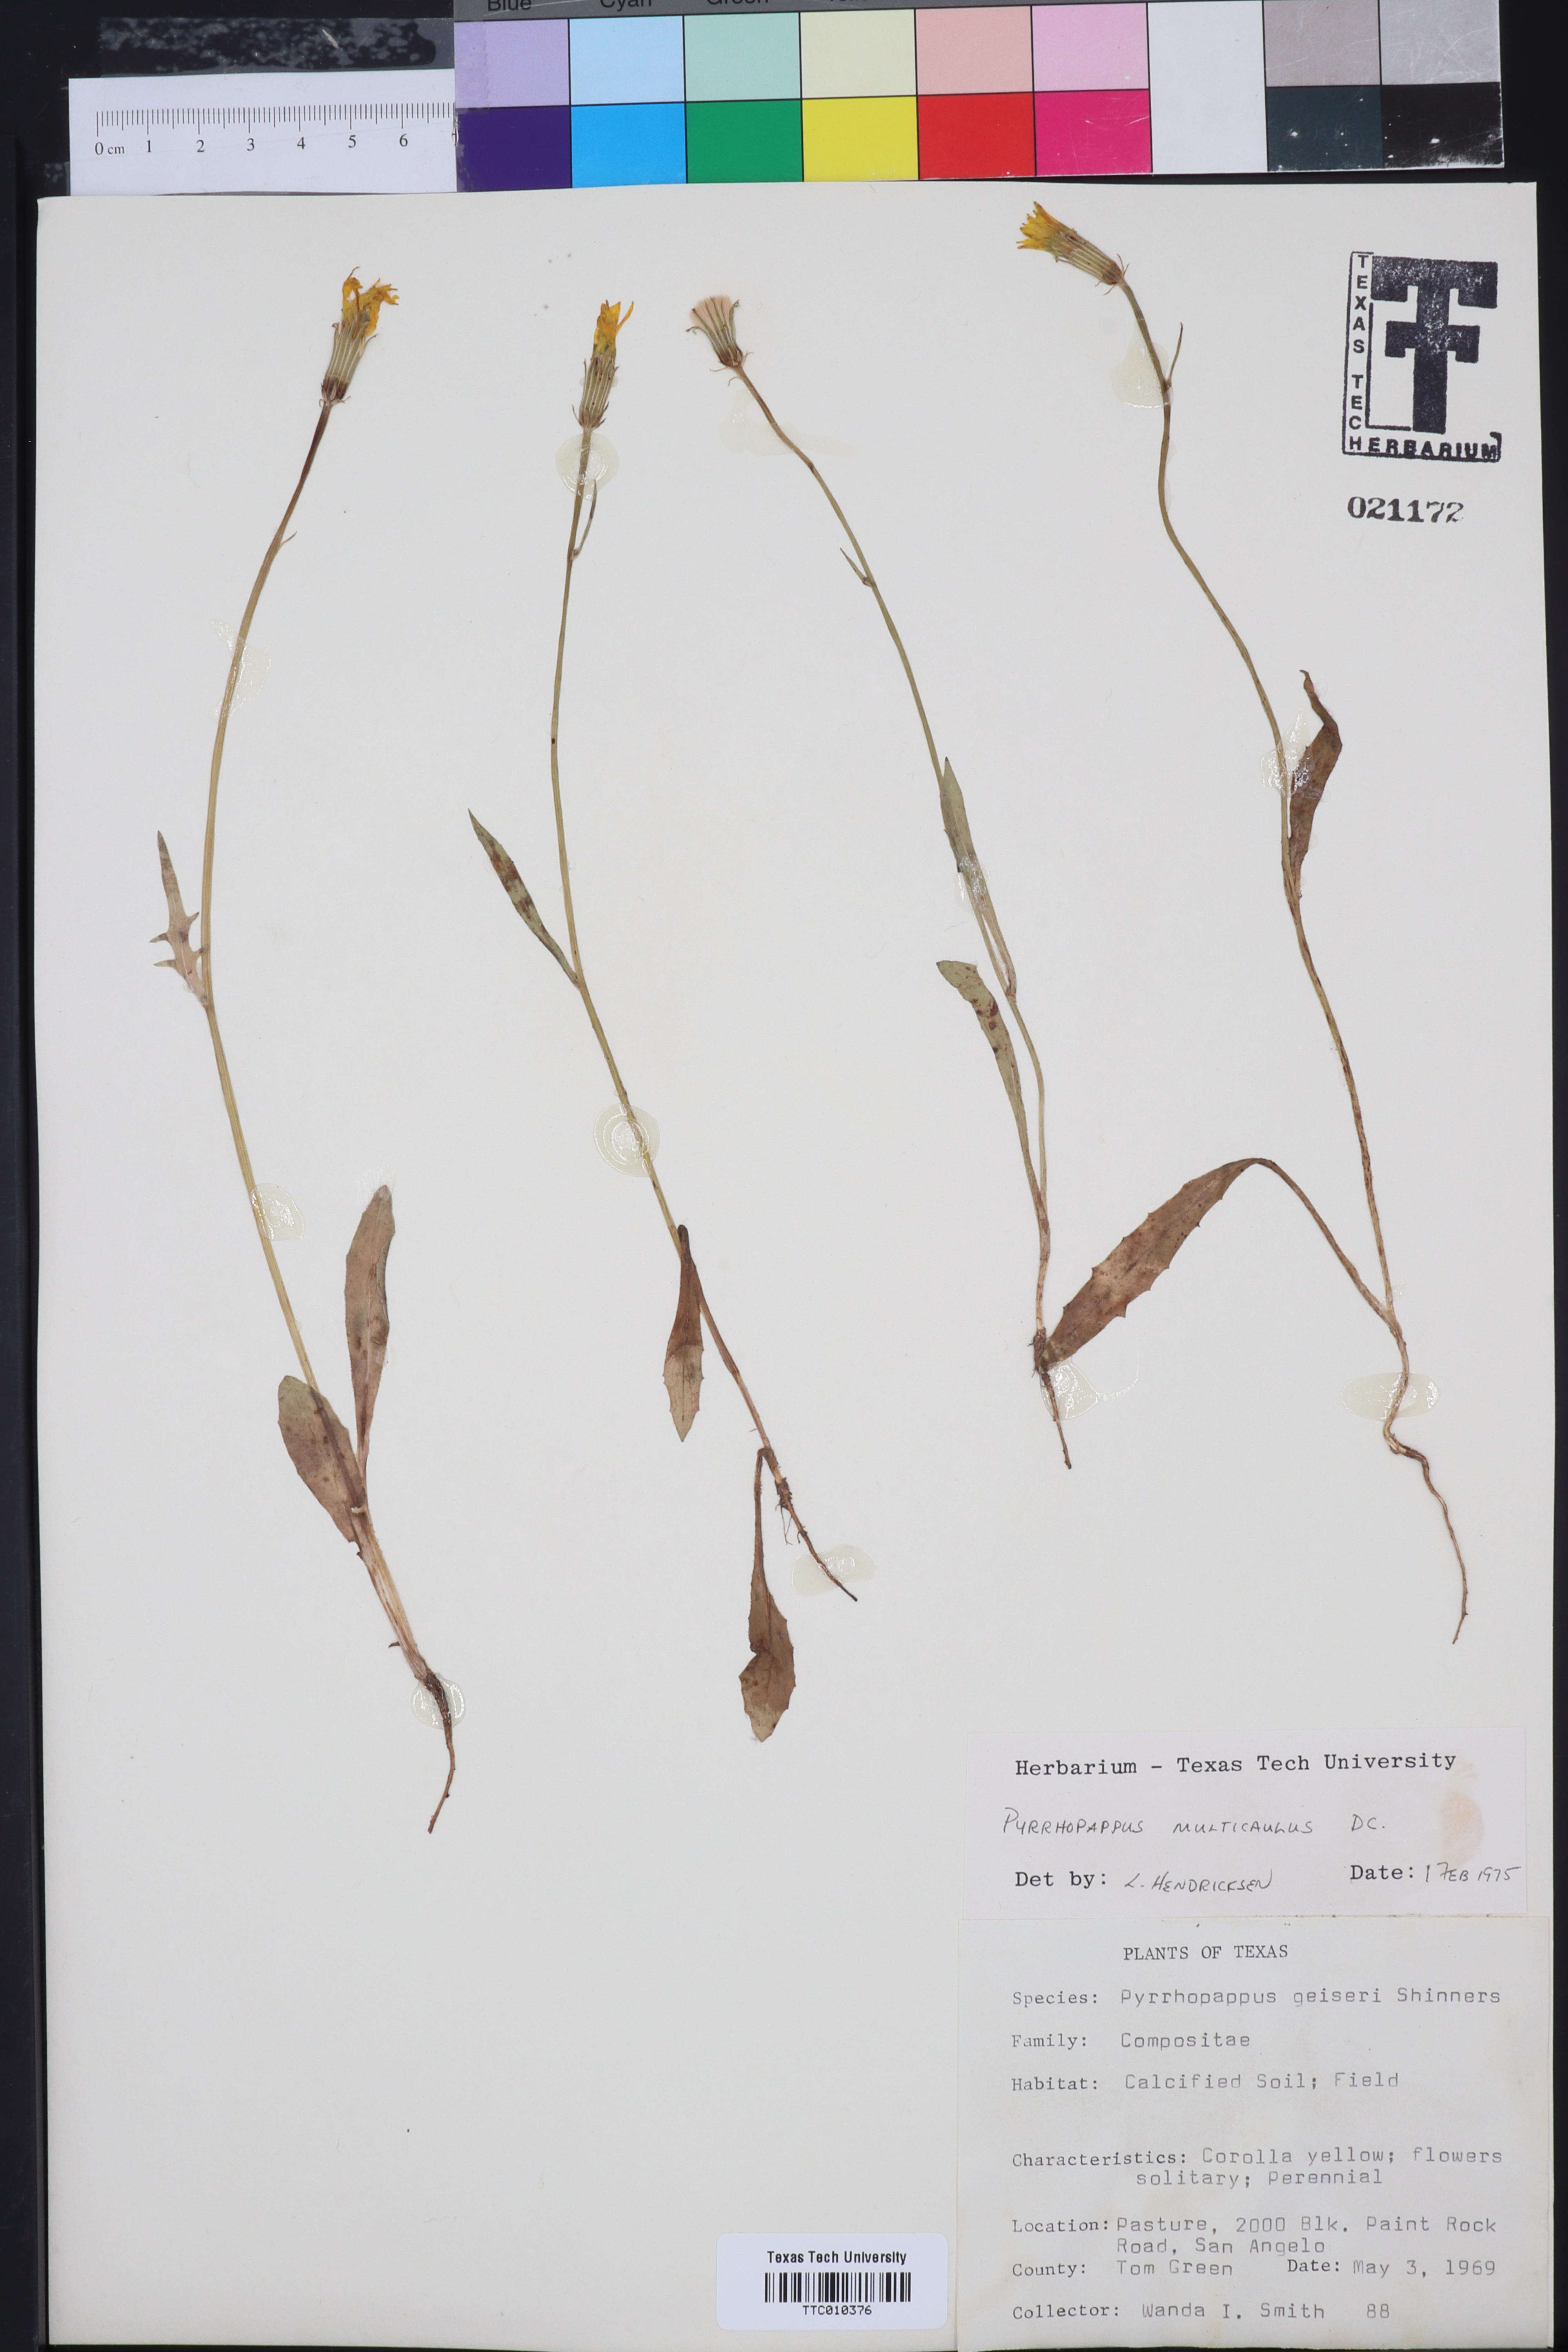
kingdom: Plantae
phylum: Tracheophyta
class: Magnoliopsida
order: Asterales
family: Asteraceae
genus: Pyrrhopappus
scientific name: Pyrrhopappus pauciflorus
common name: Texas false dandelion
